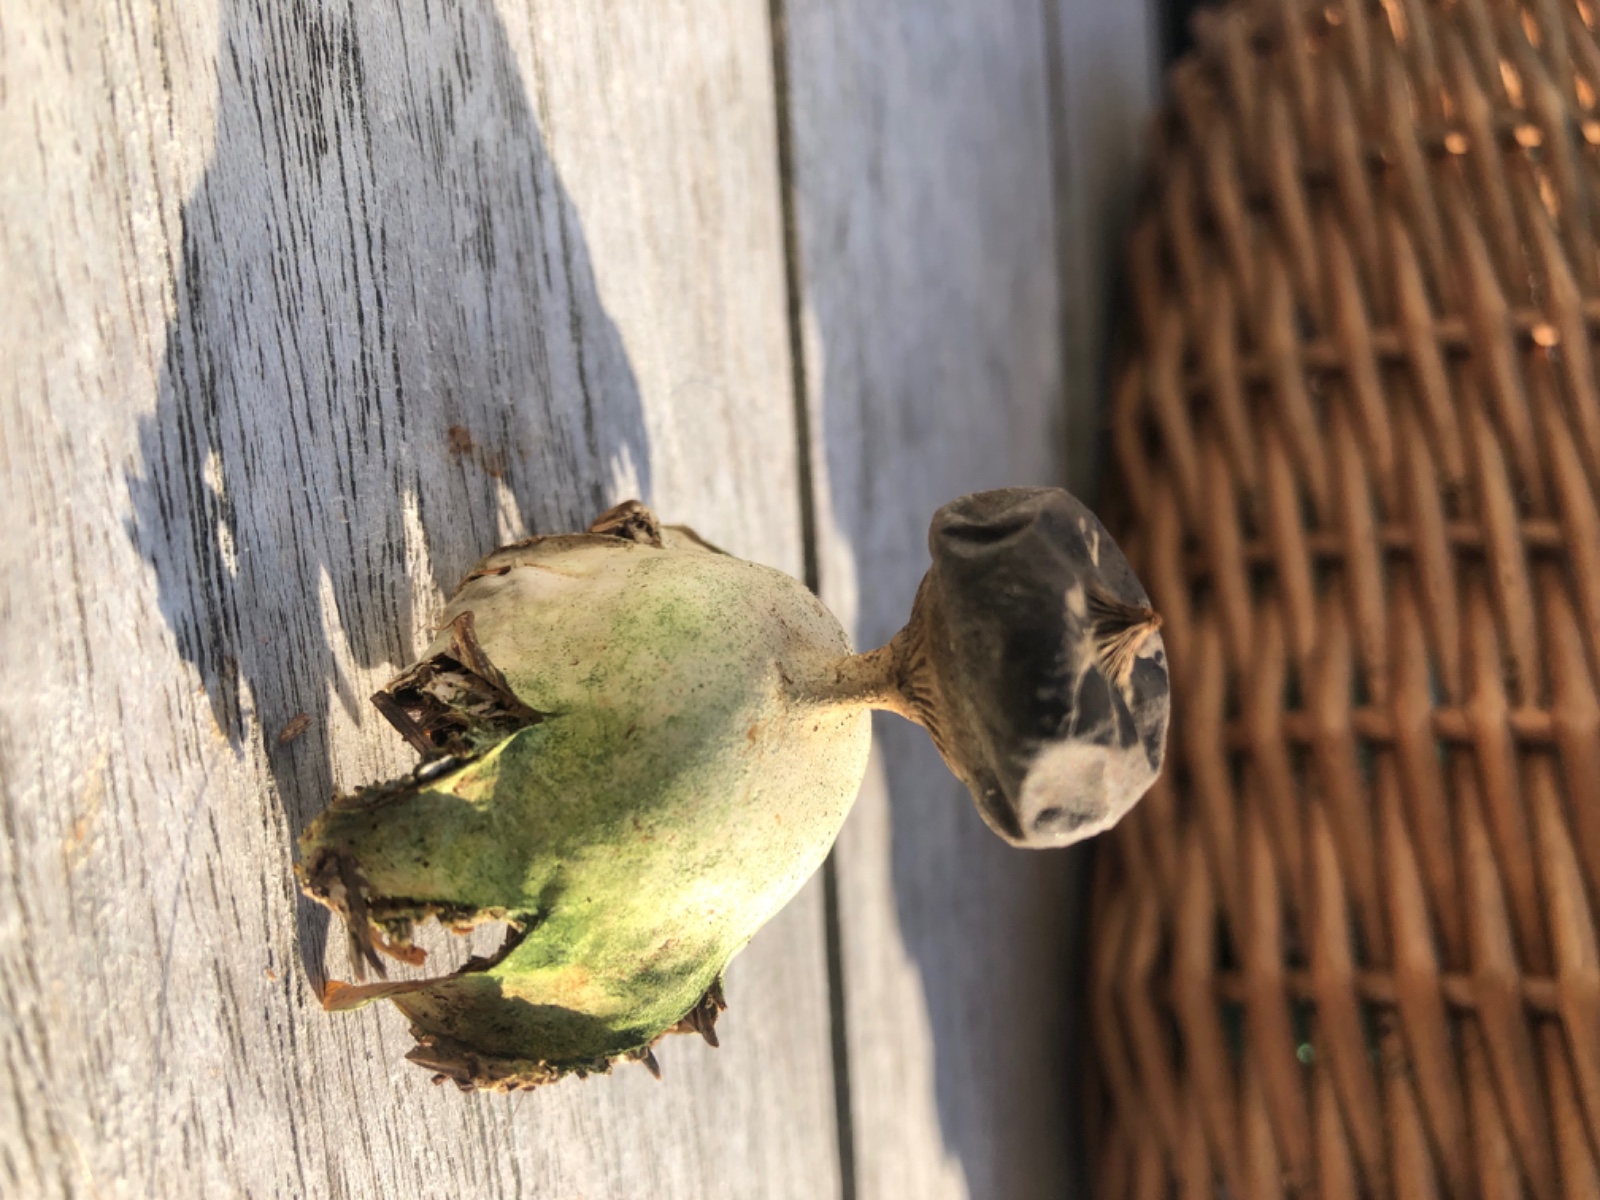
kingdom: Fungi
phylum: Basidiomycota
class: Agaricomycetes
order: Geastrales
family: Geastraceae
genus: Geastrum
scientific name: Geastrum pectinatum
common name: stilket stjernebold
